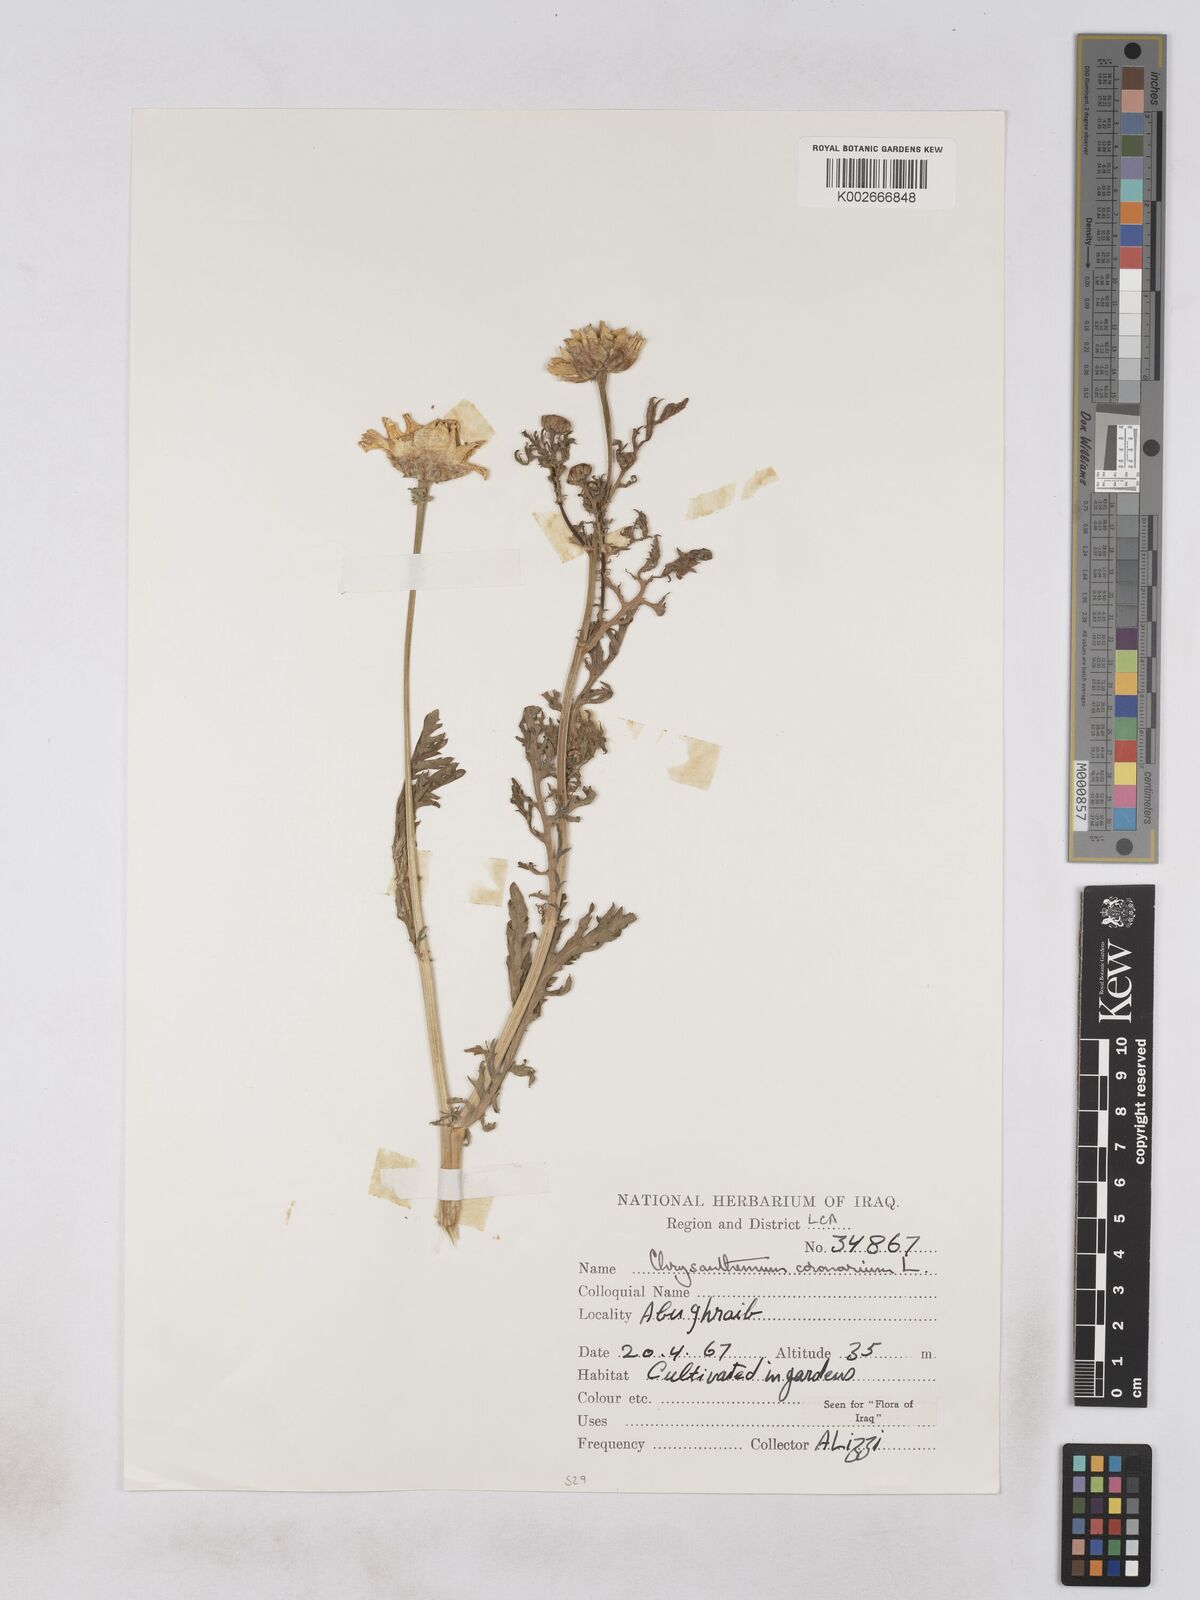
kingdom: Plantae
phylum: Tracheophyta
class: Magnoliopsida
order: Asterales
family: Asteraceae
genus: Glebionis
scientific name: Glebionis coronaria
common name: Crowndaisy
